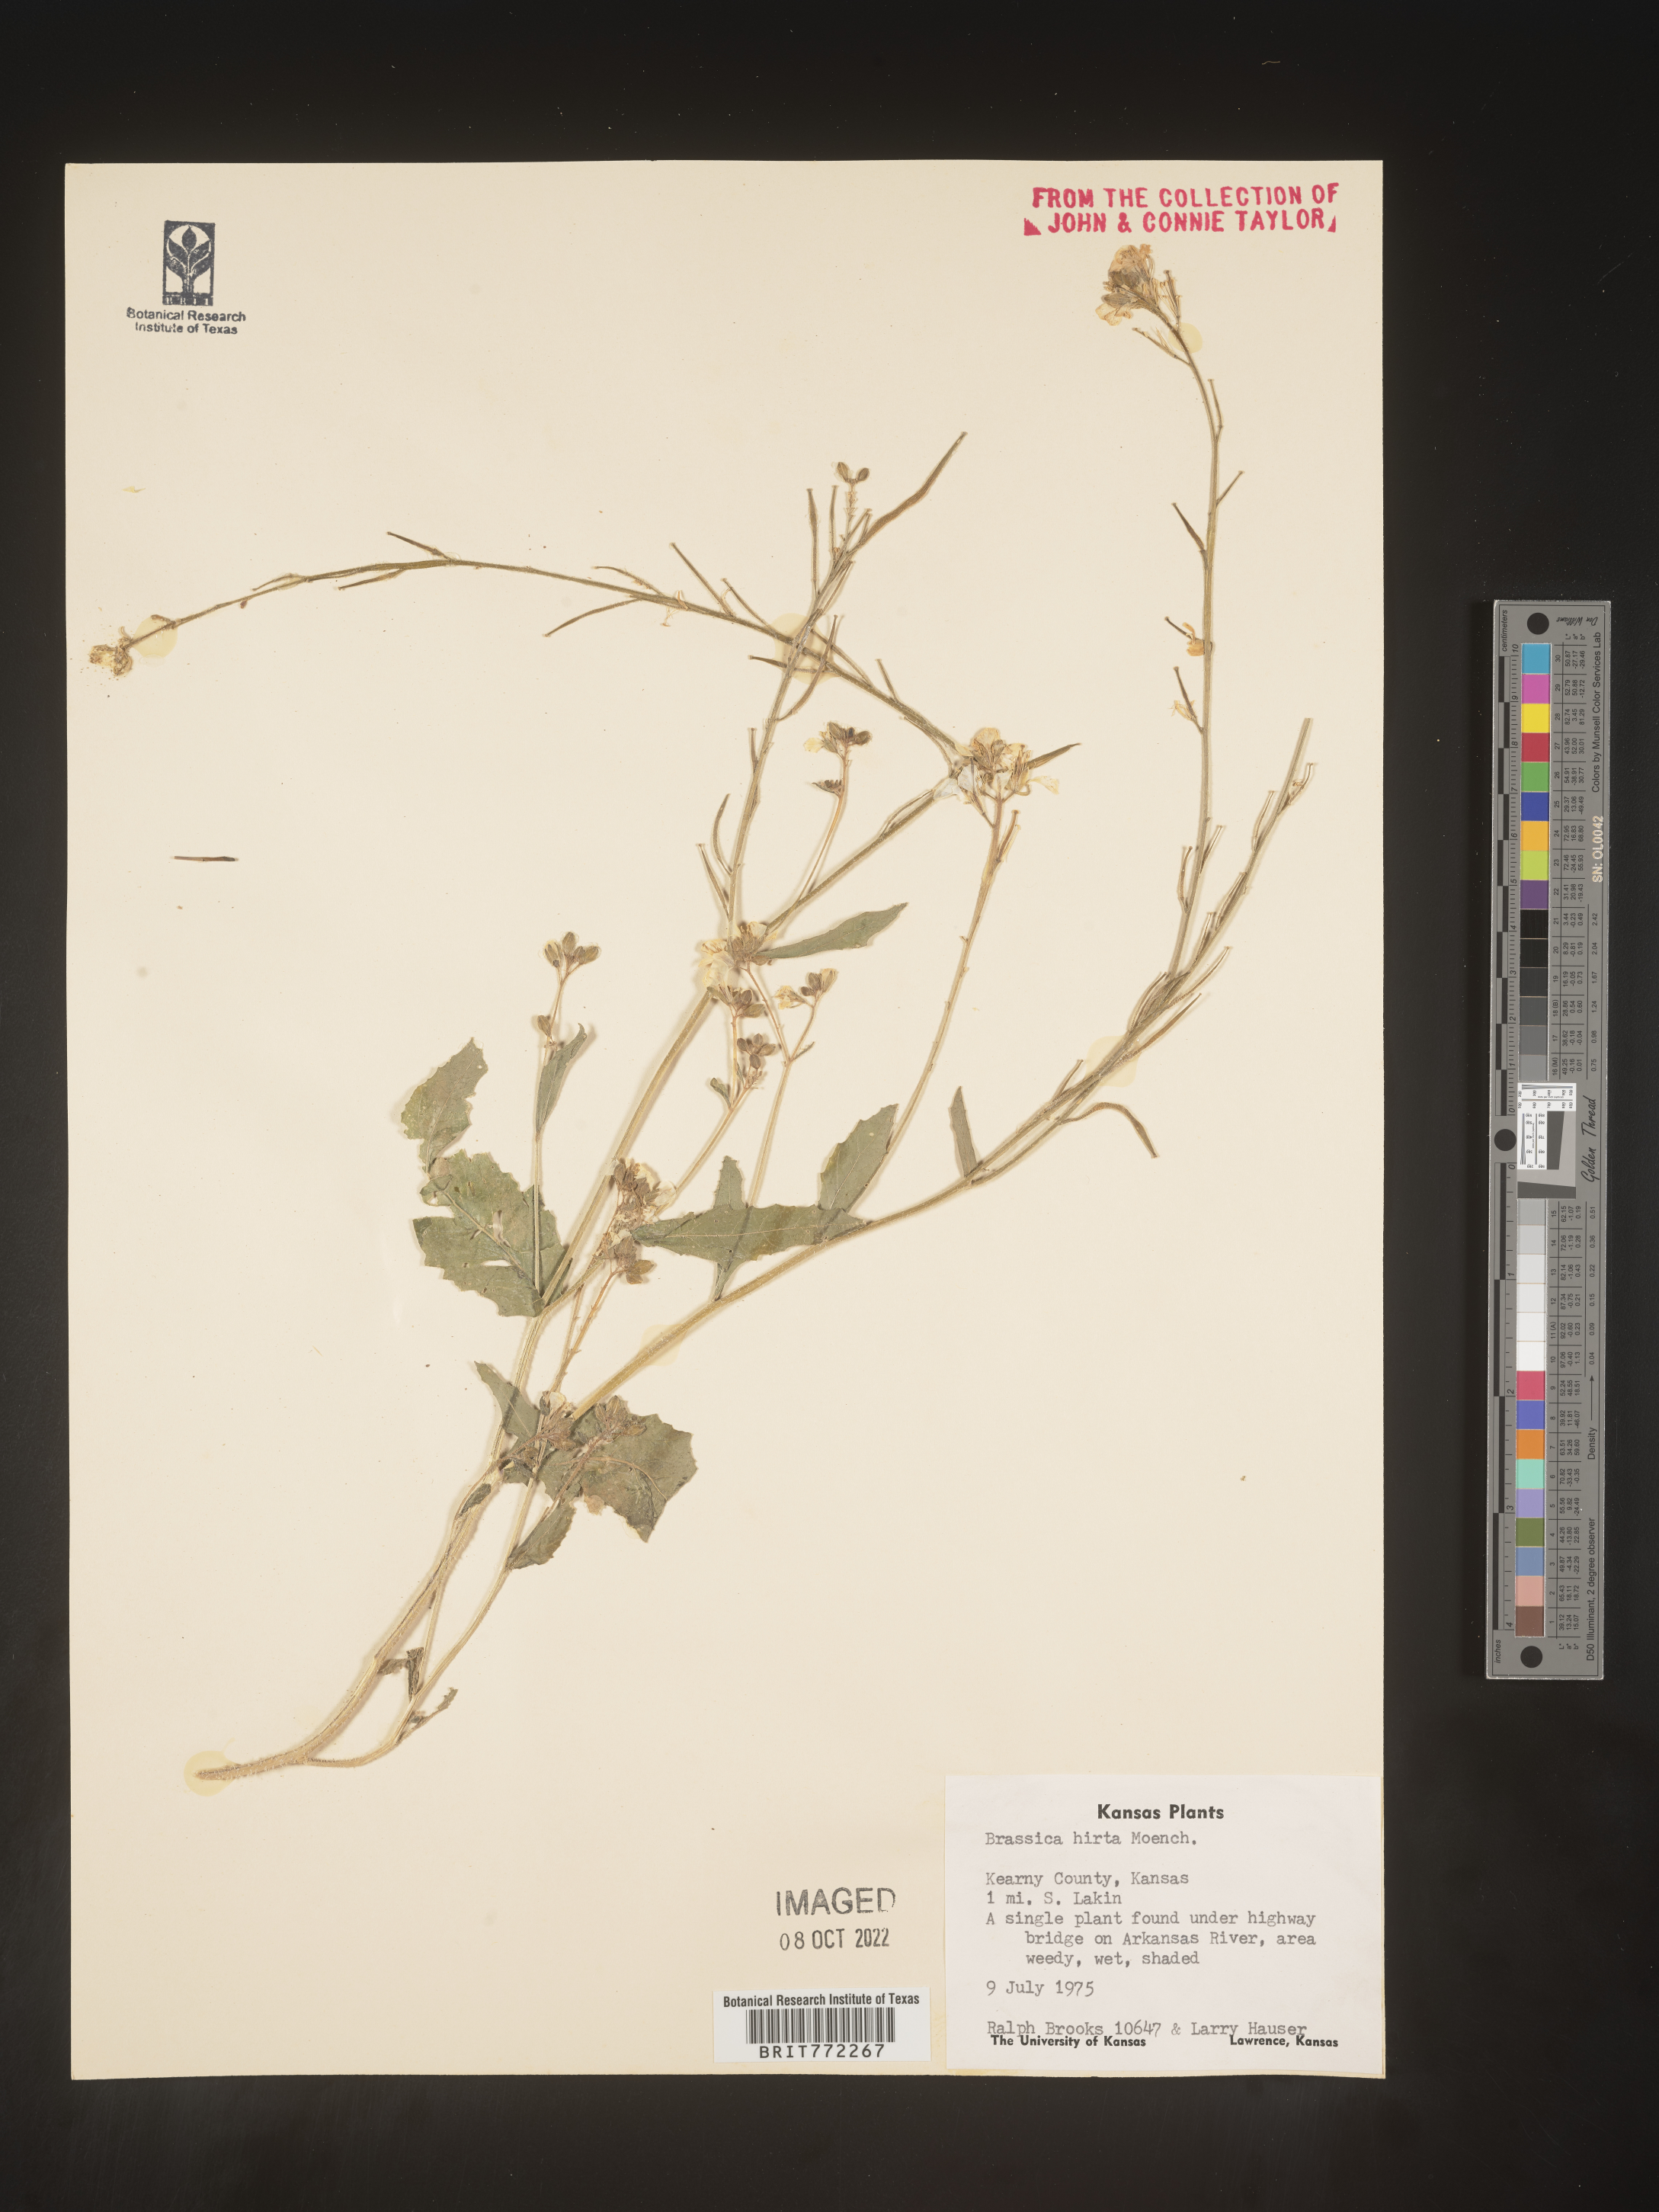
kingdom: Plantae
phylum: Tracheophyta
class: Magnoliopsida
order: Brassicales
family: Brassicaceae
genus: Hirschfeldia
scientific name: Hirschfeldia incana
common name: Hoary mustard
